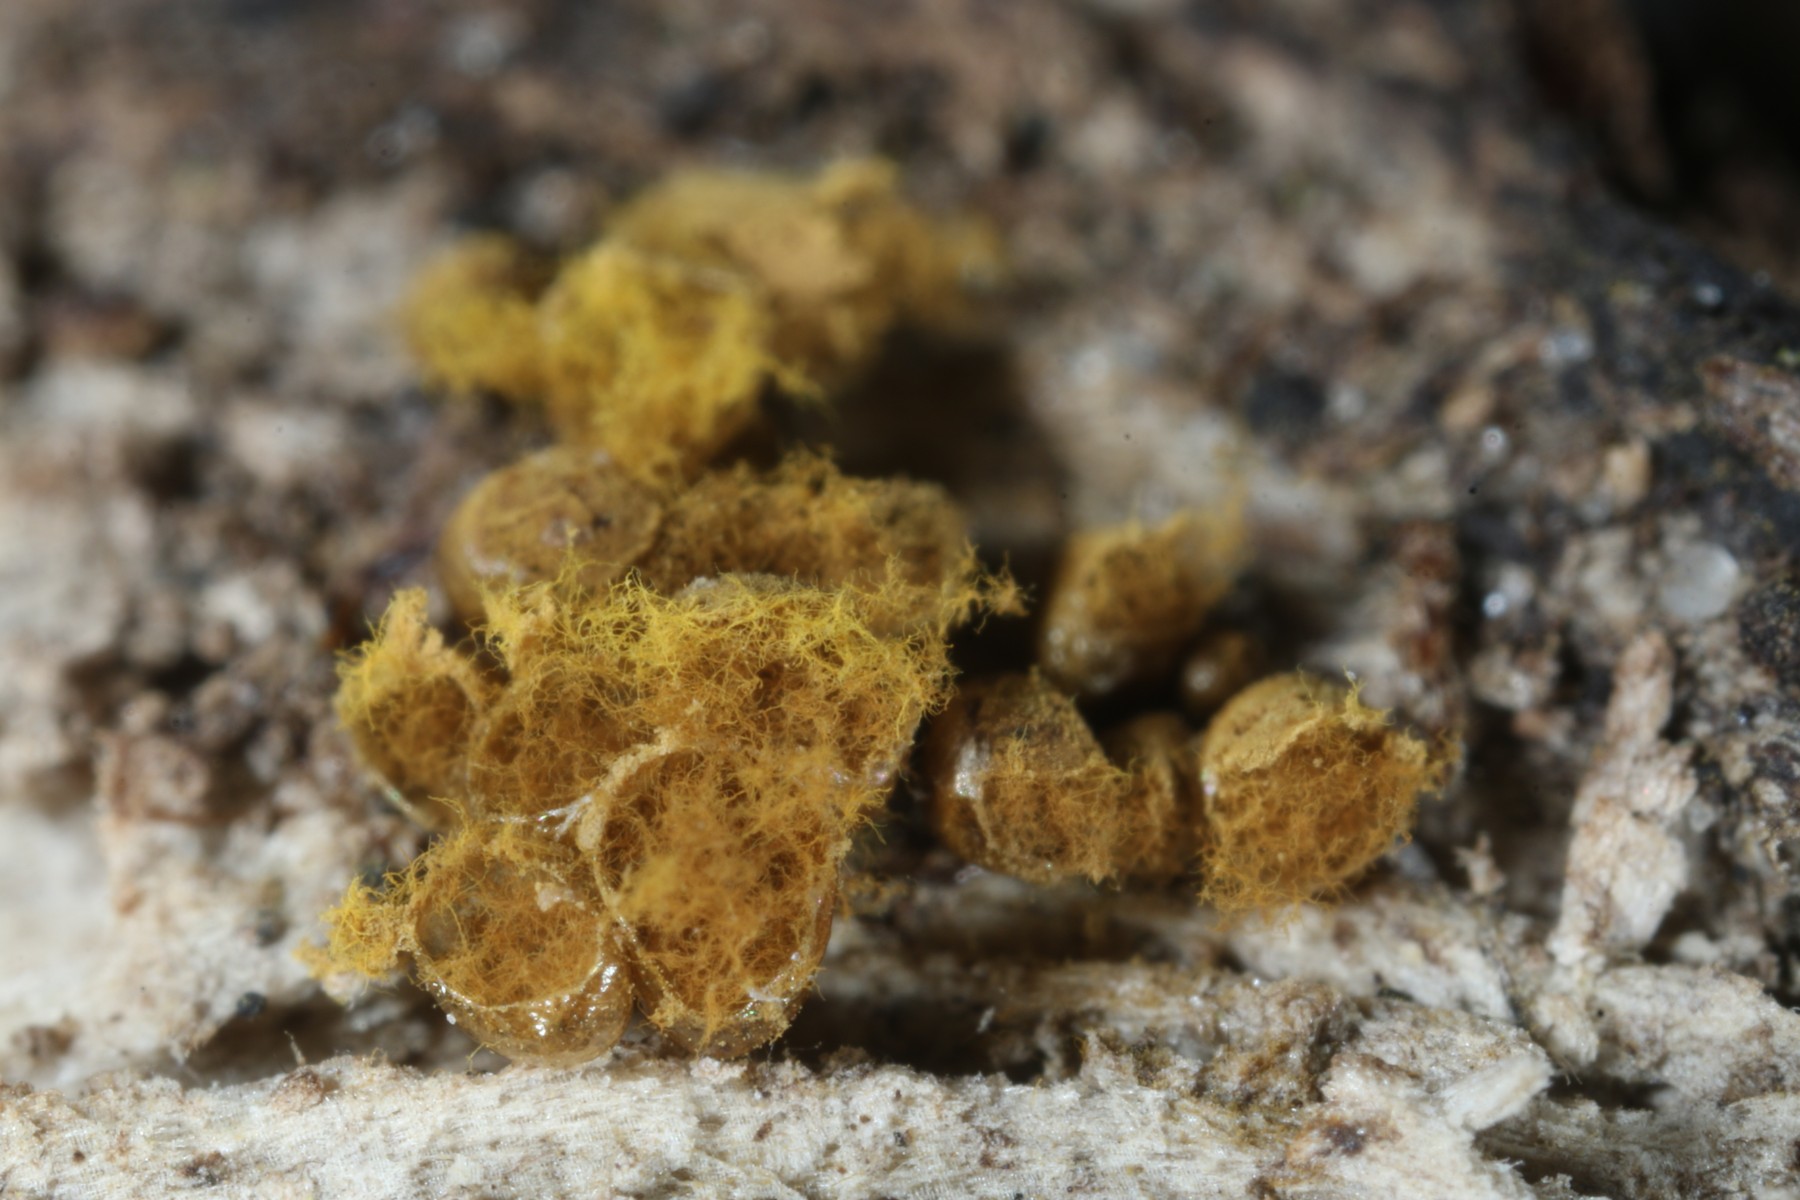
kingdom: Protozoa
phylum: Mycetozoa
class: Myxomycetes
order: Trichiales
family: Arcyriaceae
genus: Hemitrichia
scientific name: Hemitrichia decipiens
